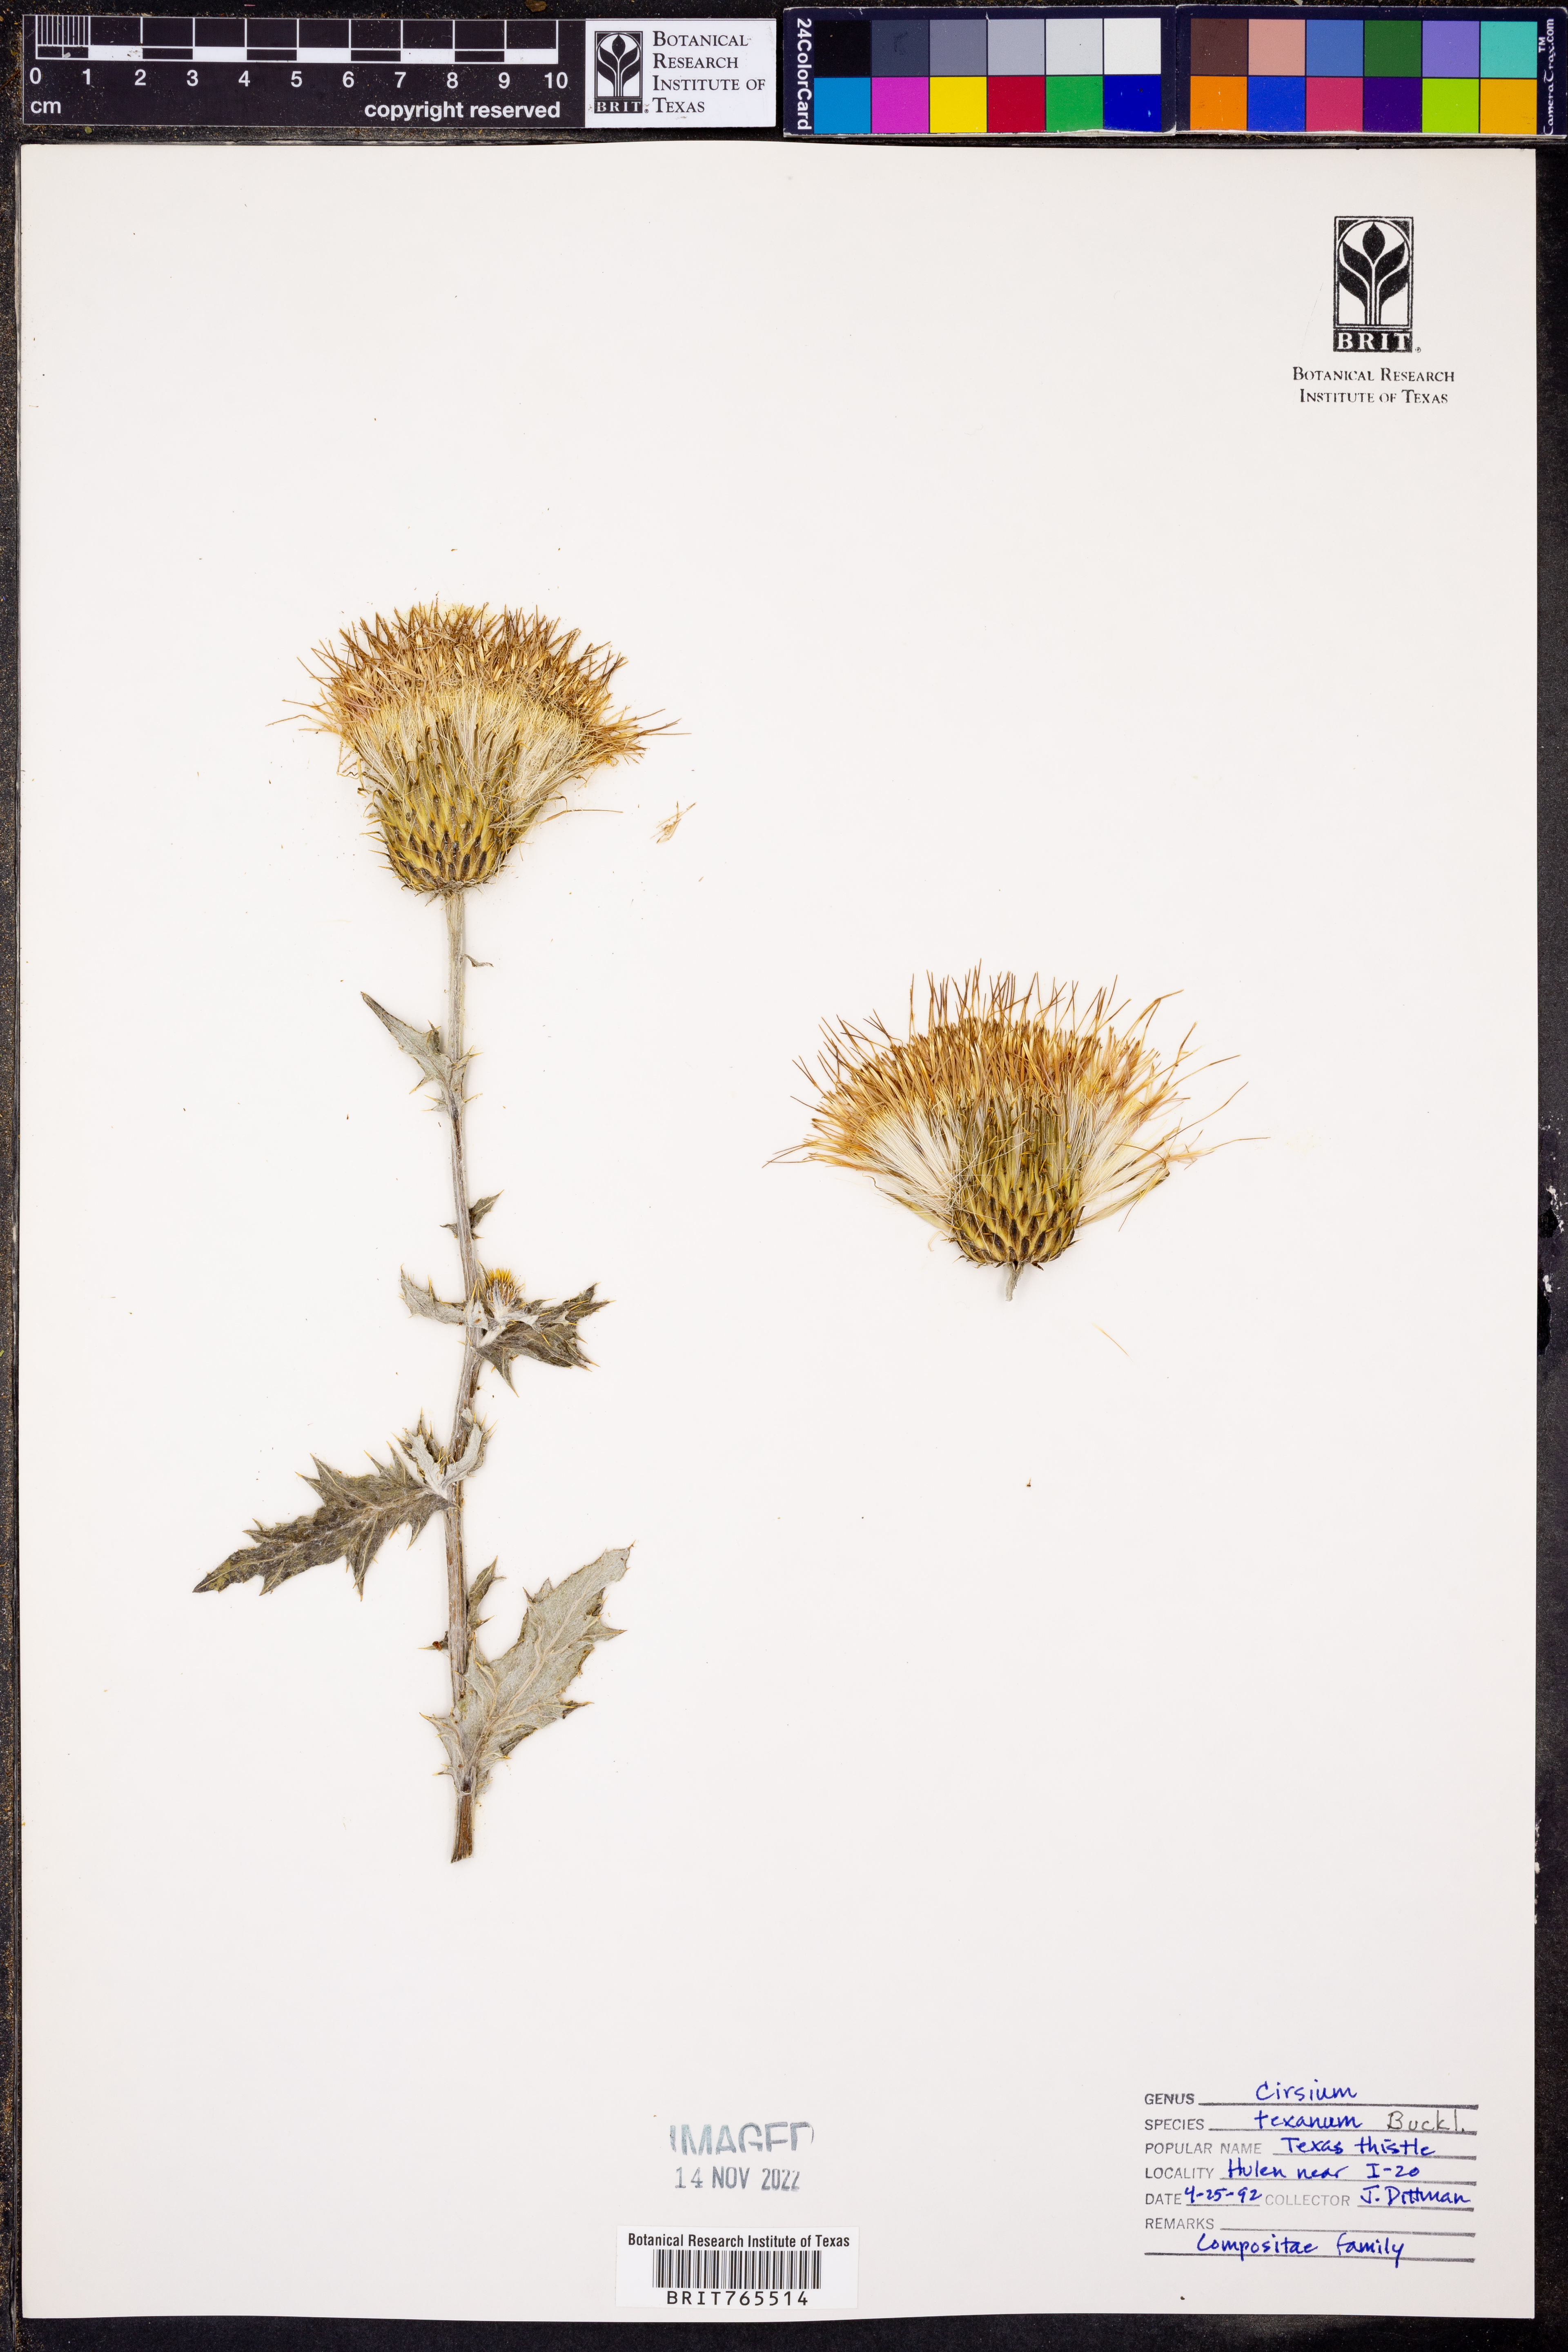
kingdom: Plantae
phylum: Tracheophyta
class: Magnoliopsida
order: Asterales
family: Asteraceae
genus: Cirsium
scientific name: Cirsium texanum
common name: Texas purple thistle
